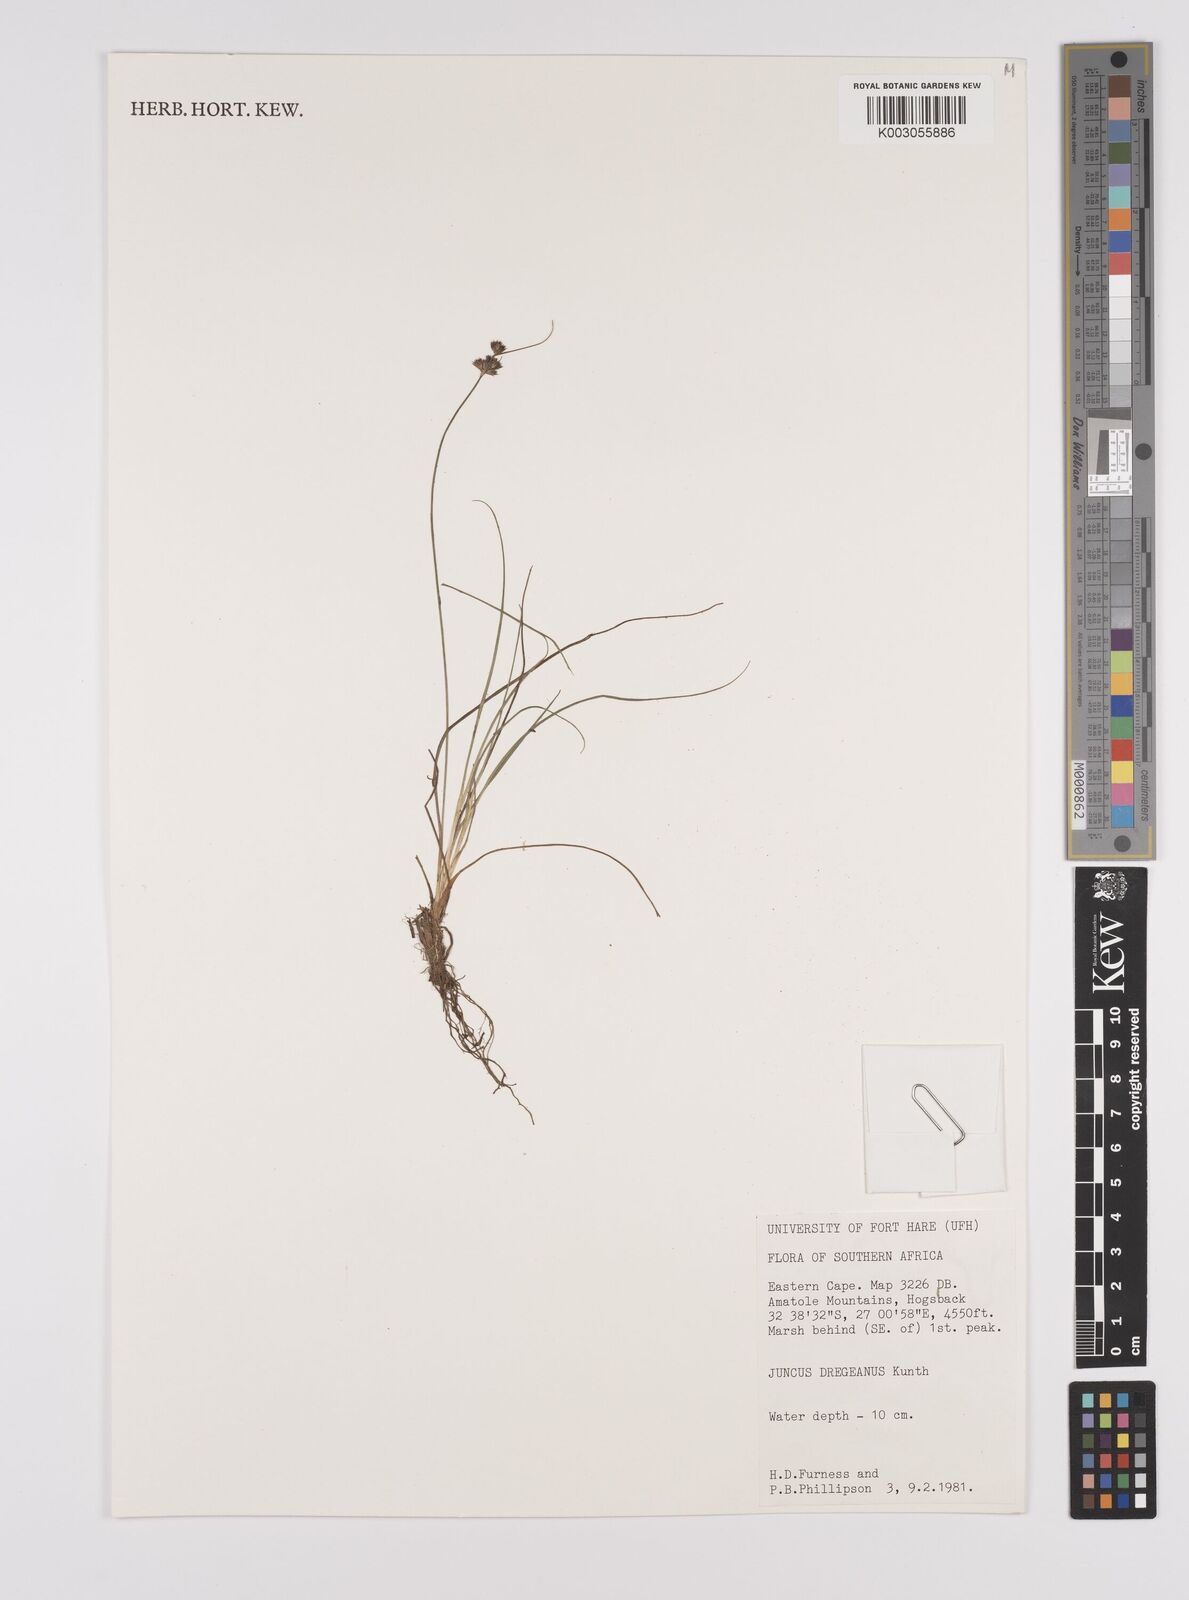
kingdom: Plantae
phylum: Tracheophyta
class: Liliopsida
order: Poales
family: Juncaceae
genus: Juncus
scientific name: Juncus dregeanus
